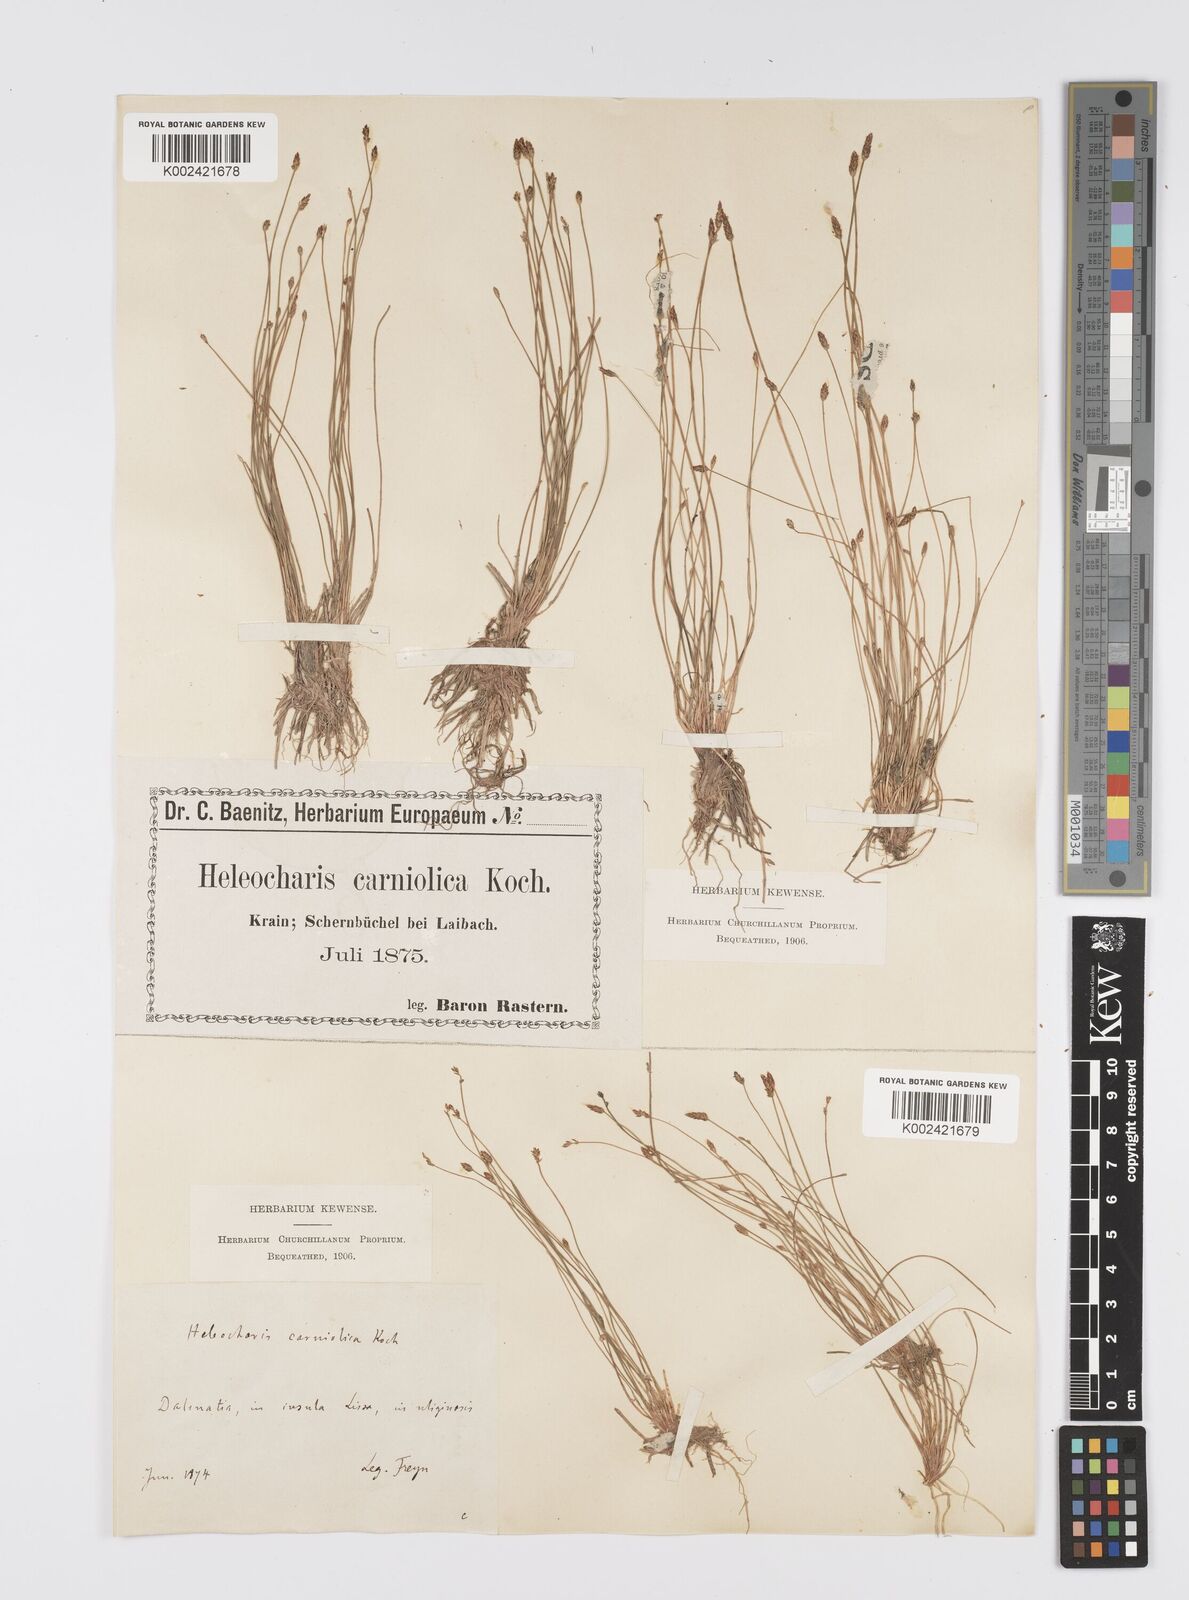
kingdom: Plantae
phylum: Tracheophyta
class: Liliopsida
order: Poales
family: Cyperaceae
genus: Eleocharis
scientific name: Eleocharis carniolica
